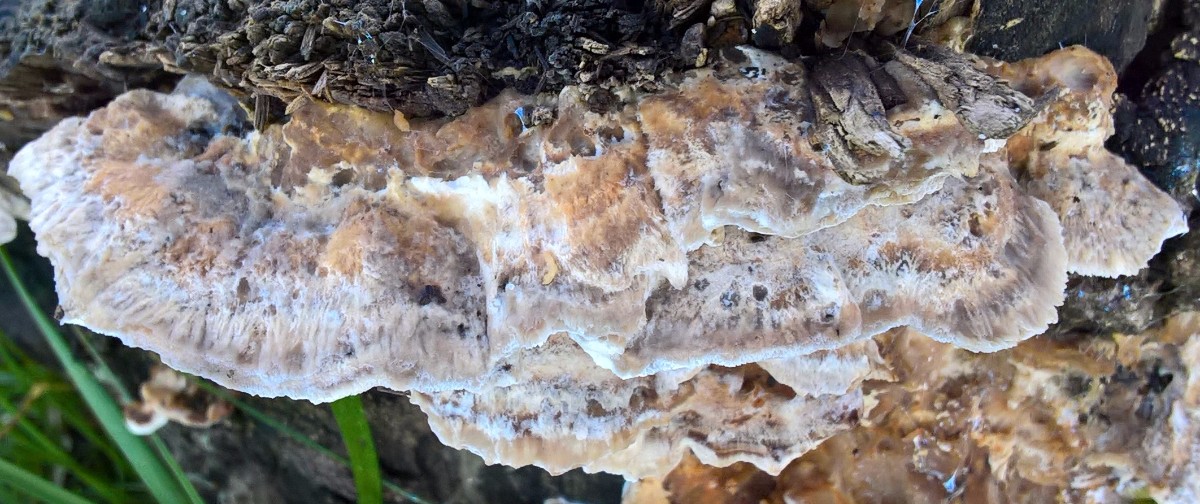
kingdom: Fungi
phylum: Basidiomycota
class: Agaricomycetes
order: Polyporales
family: Phanerochaetaceae
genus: Bjerkandera
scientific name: Bjerkandera fumosa
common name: grågul sodporesvamp
